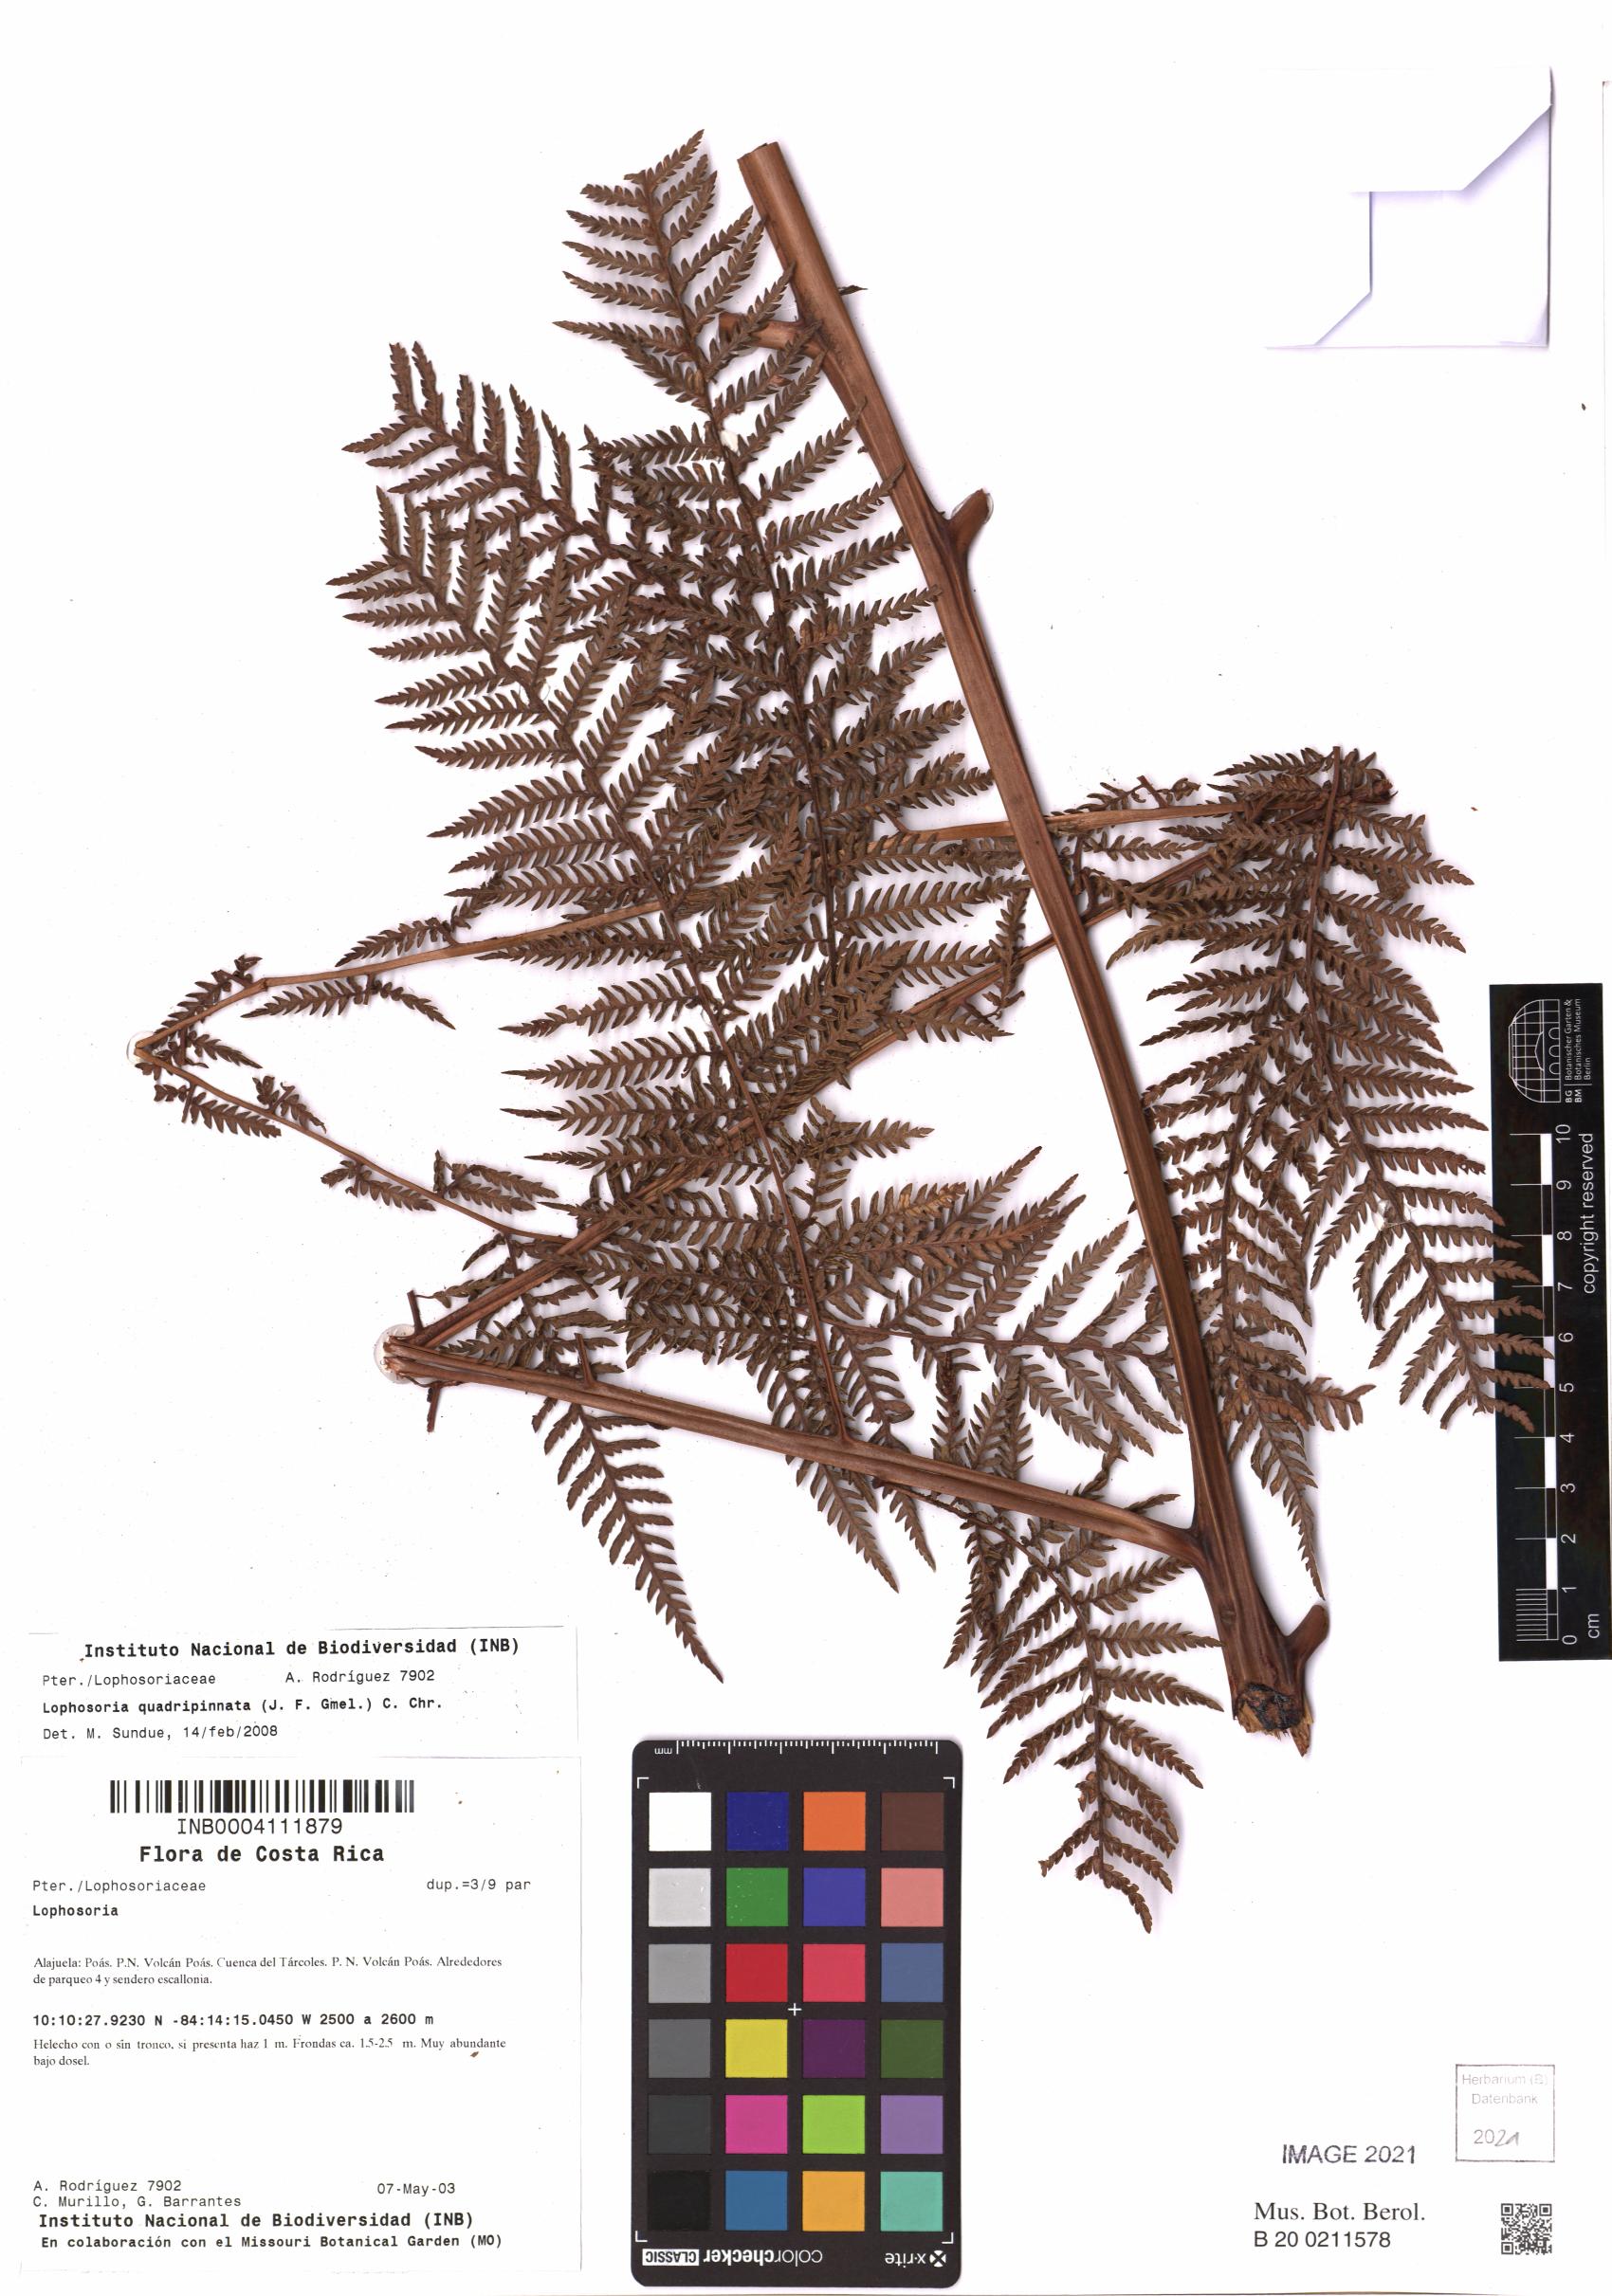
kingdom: Plantae
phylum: Tracheophyta
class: Polypodiopsida
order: Cyatheales
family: Dicksoniaceae
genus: Lophosoria
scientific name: Lophosoria quadripinnata
